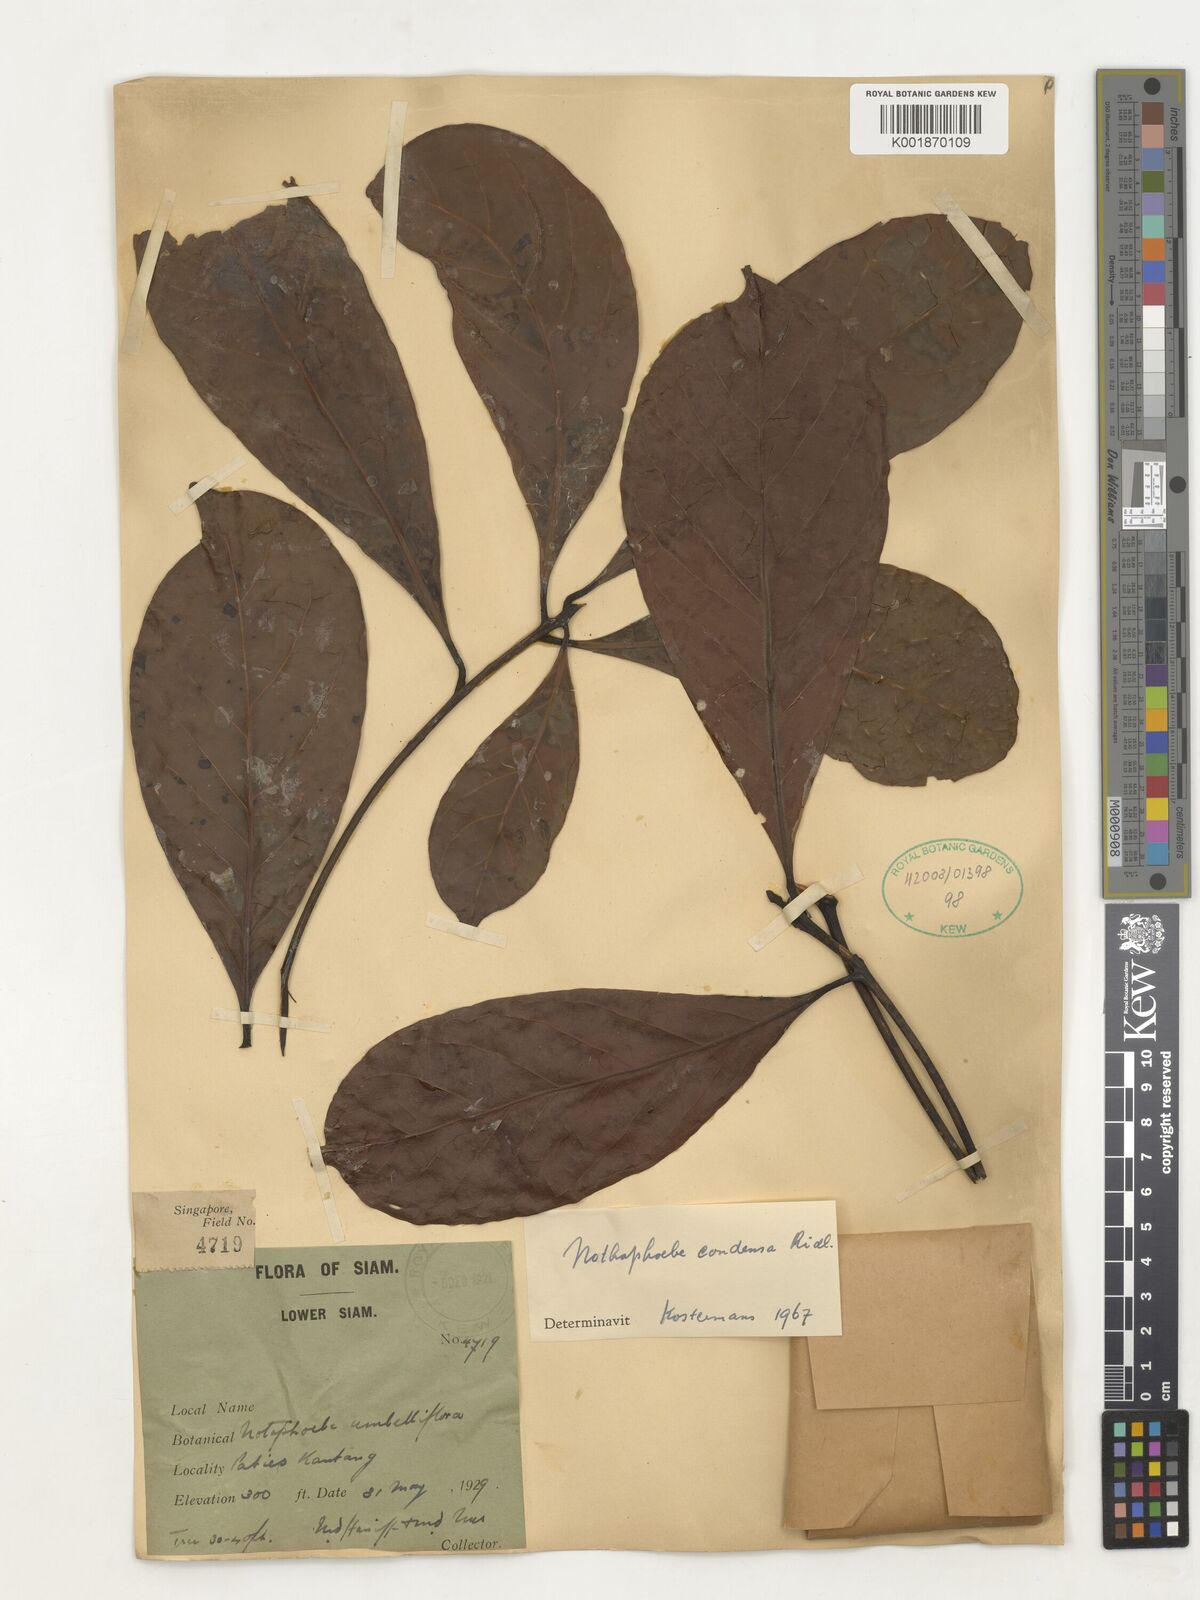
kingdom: Plantae
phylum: Tracheophyta
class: Magnoliopsida
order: Laurales
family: Lauraceae
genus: Nothaphoebe
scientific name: Nothaphoebe condensa
